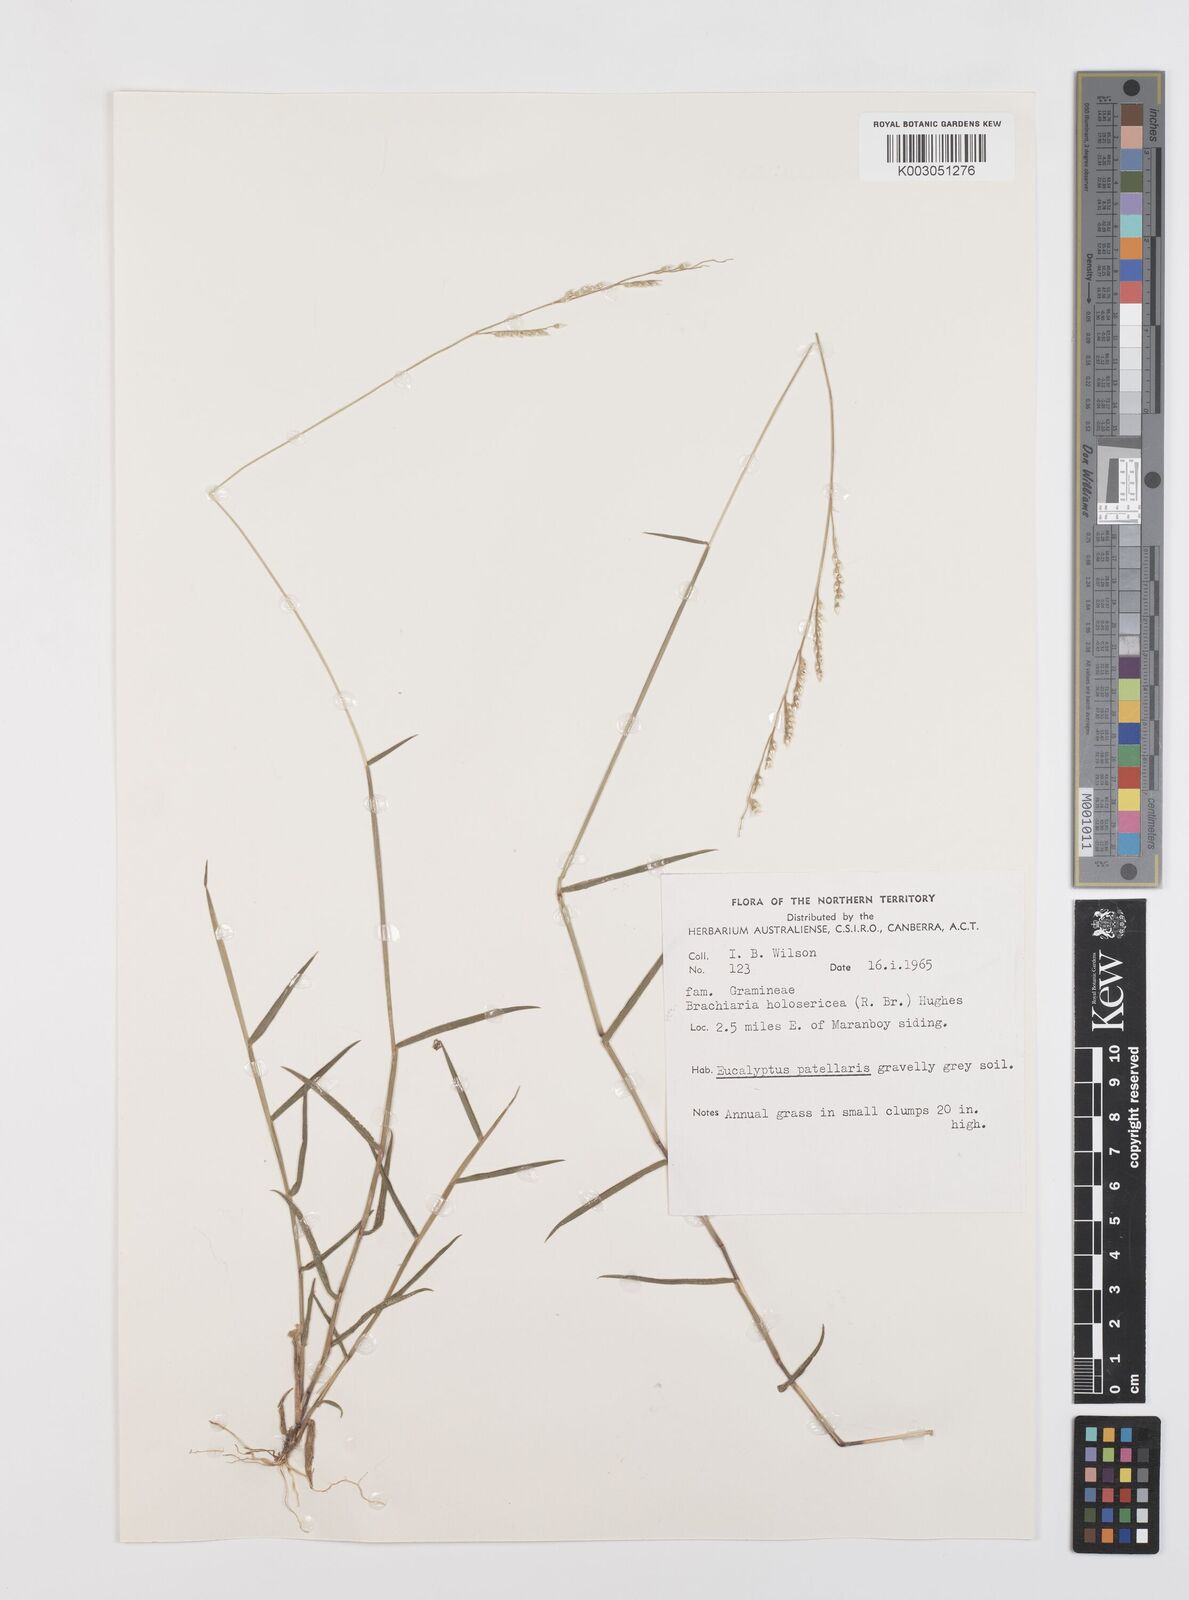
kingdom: Plantae
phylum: Tracheophyta
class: Liliopsida
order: Poales
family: Poaceae
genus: Urochloa
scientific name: Urochloa holosericea
